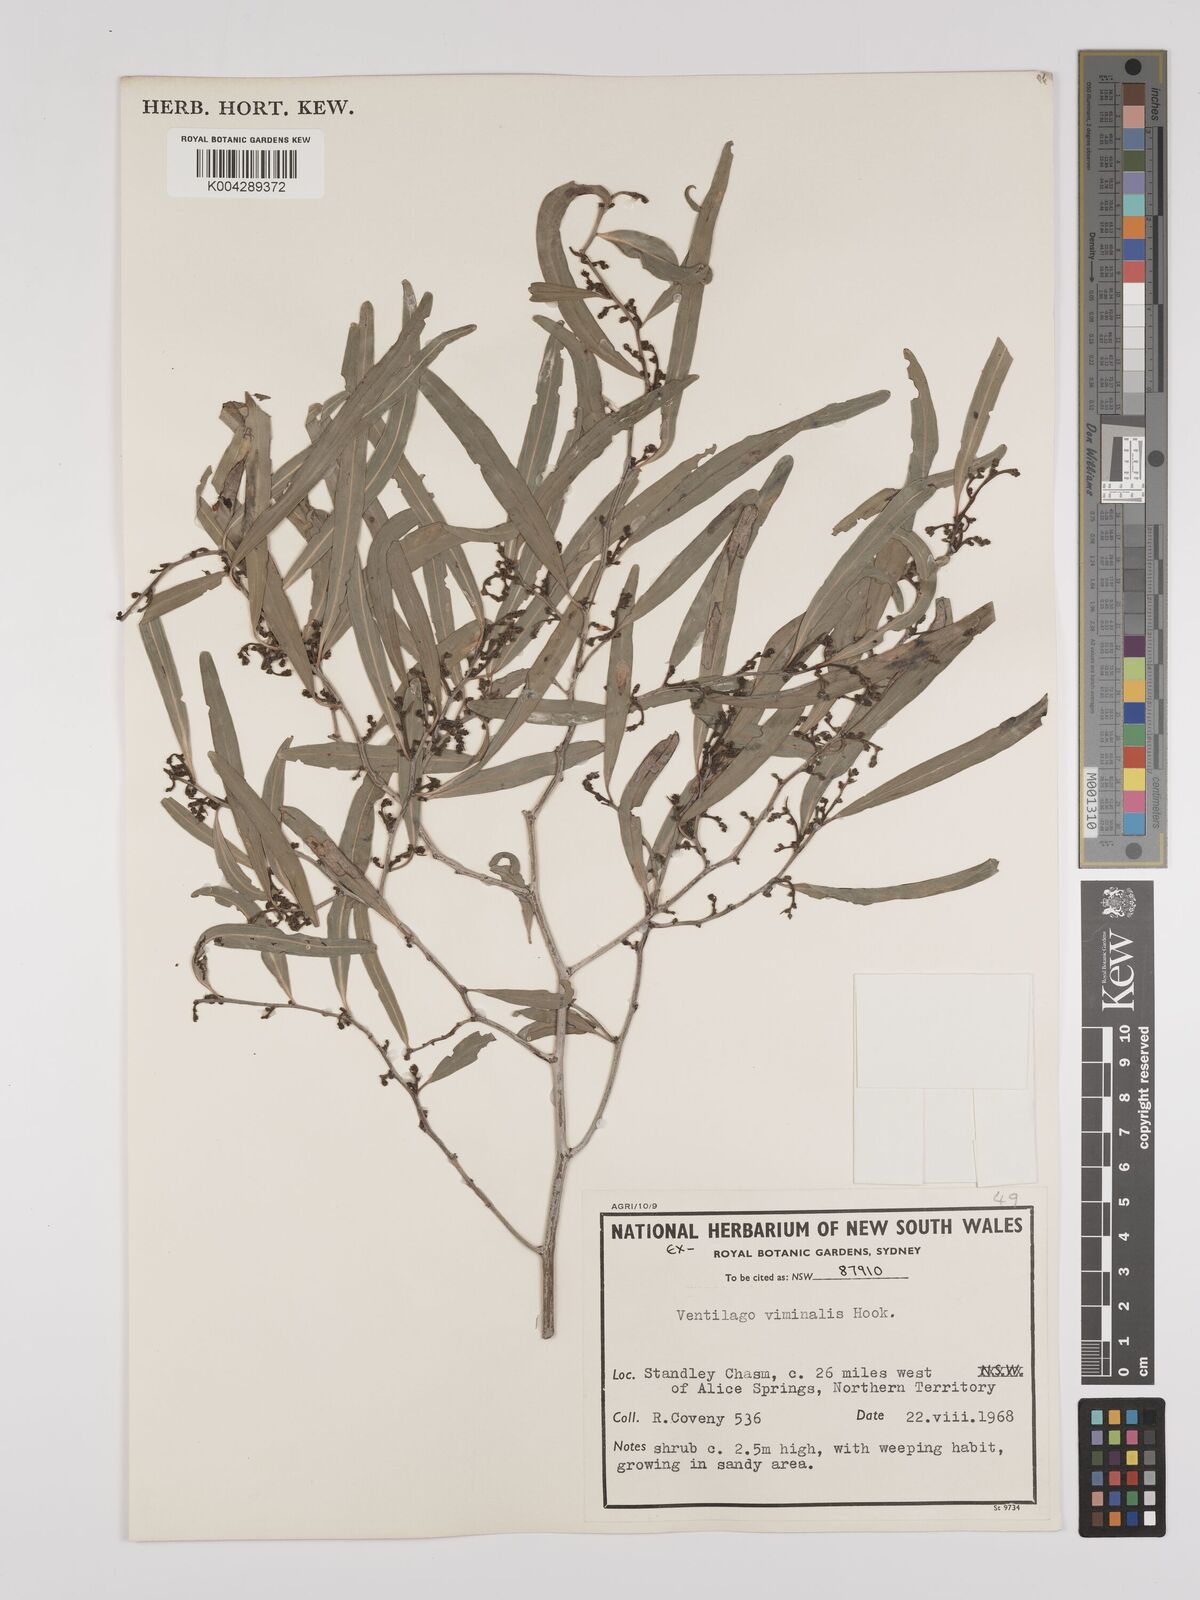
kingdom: Plantae
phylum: Tracheophyta
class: Magnoliopsida
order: Rosales
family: Rhamnaceae
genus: Ventilago
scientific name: Ventilago viminalis
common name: Medicine-bark
